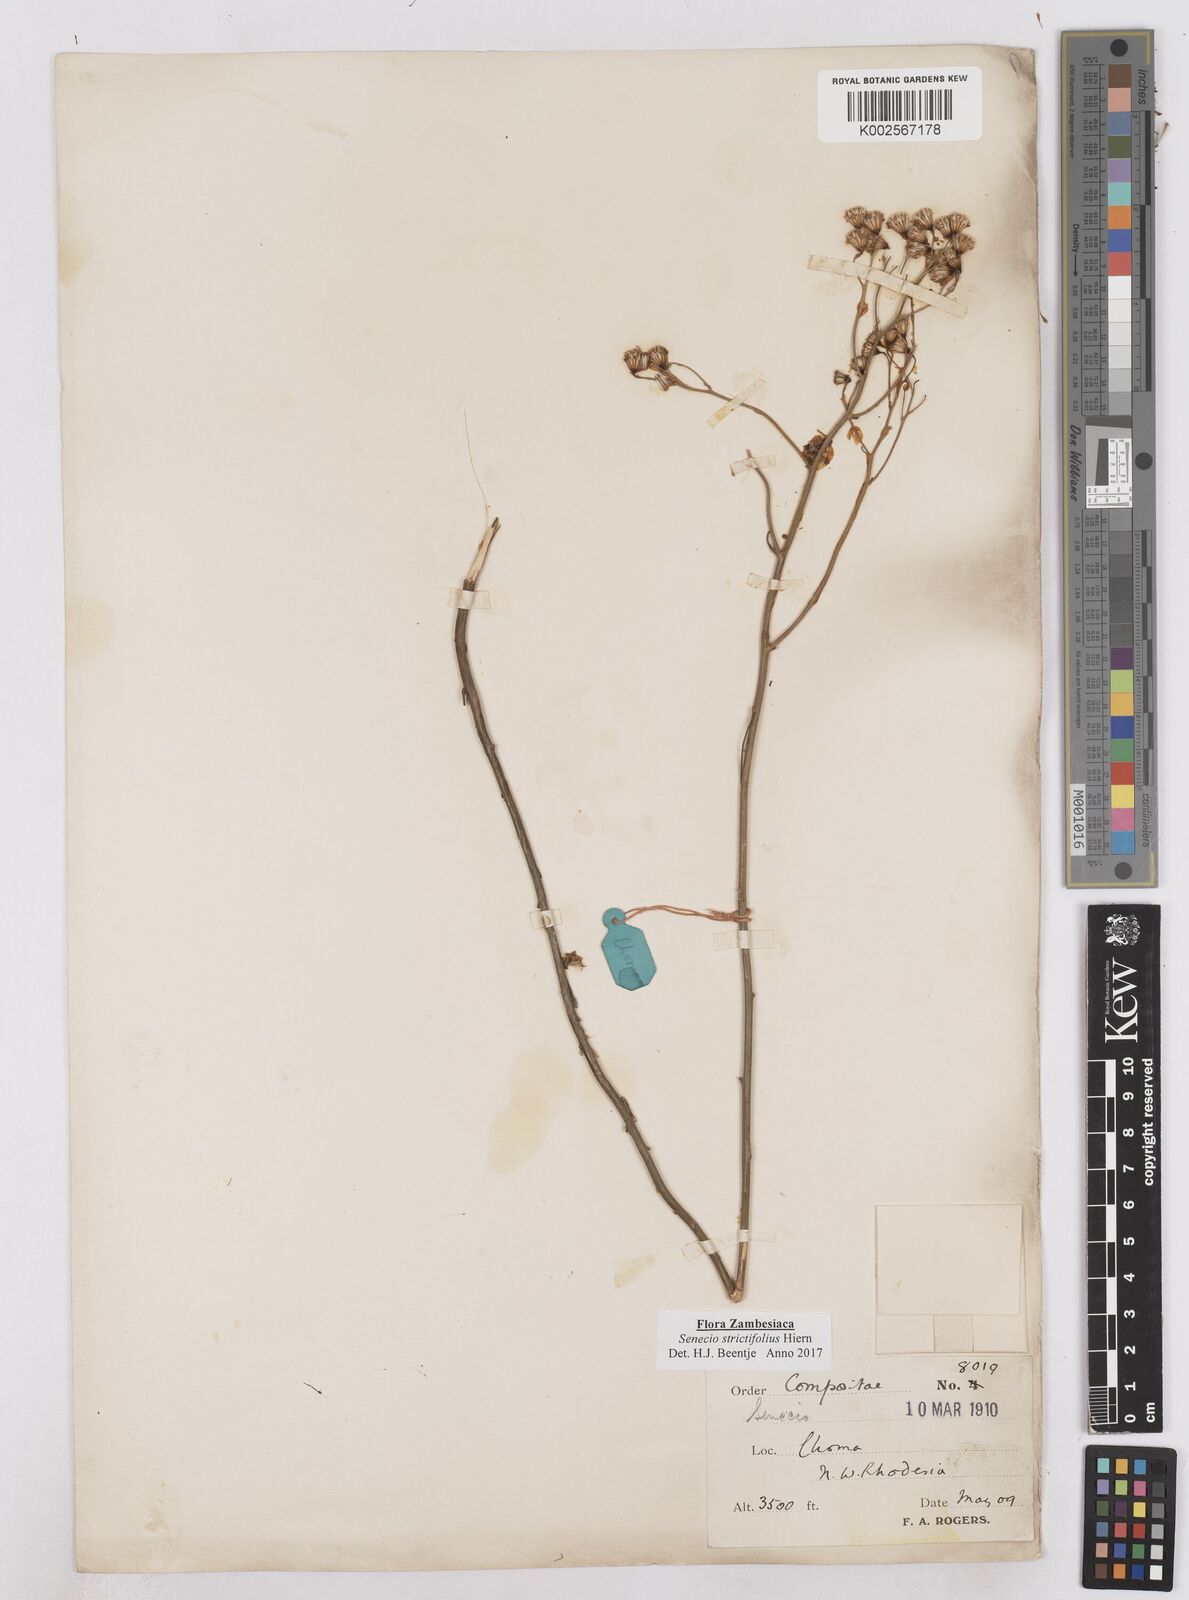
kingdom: Plantae
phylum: Tracheophyta
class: Magnoliopsida
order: Asterales
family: Asteraceae
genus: Senecio
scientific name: Senecio strictifolius
